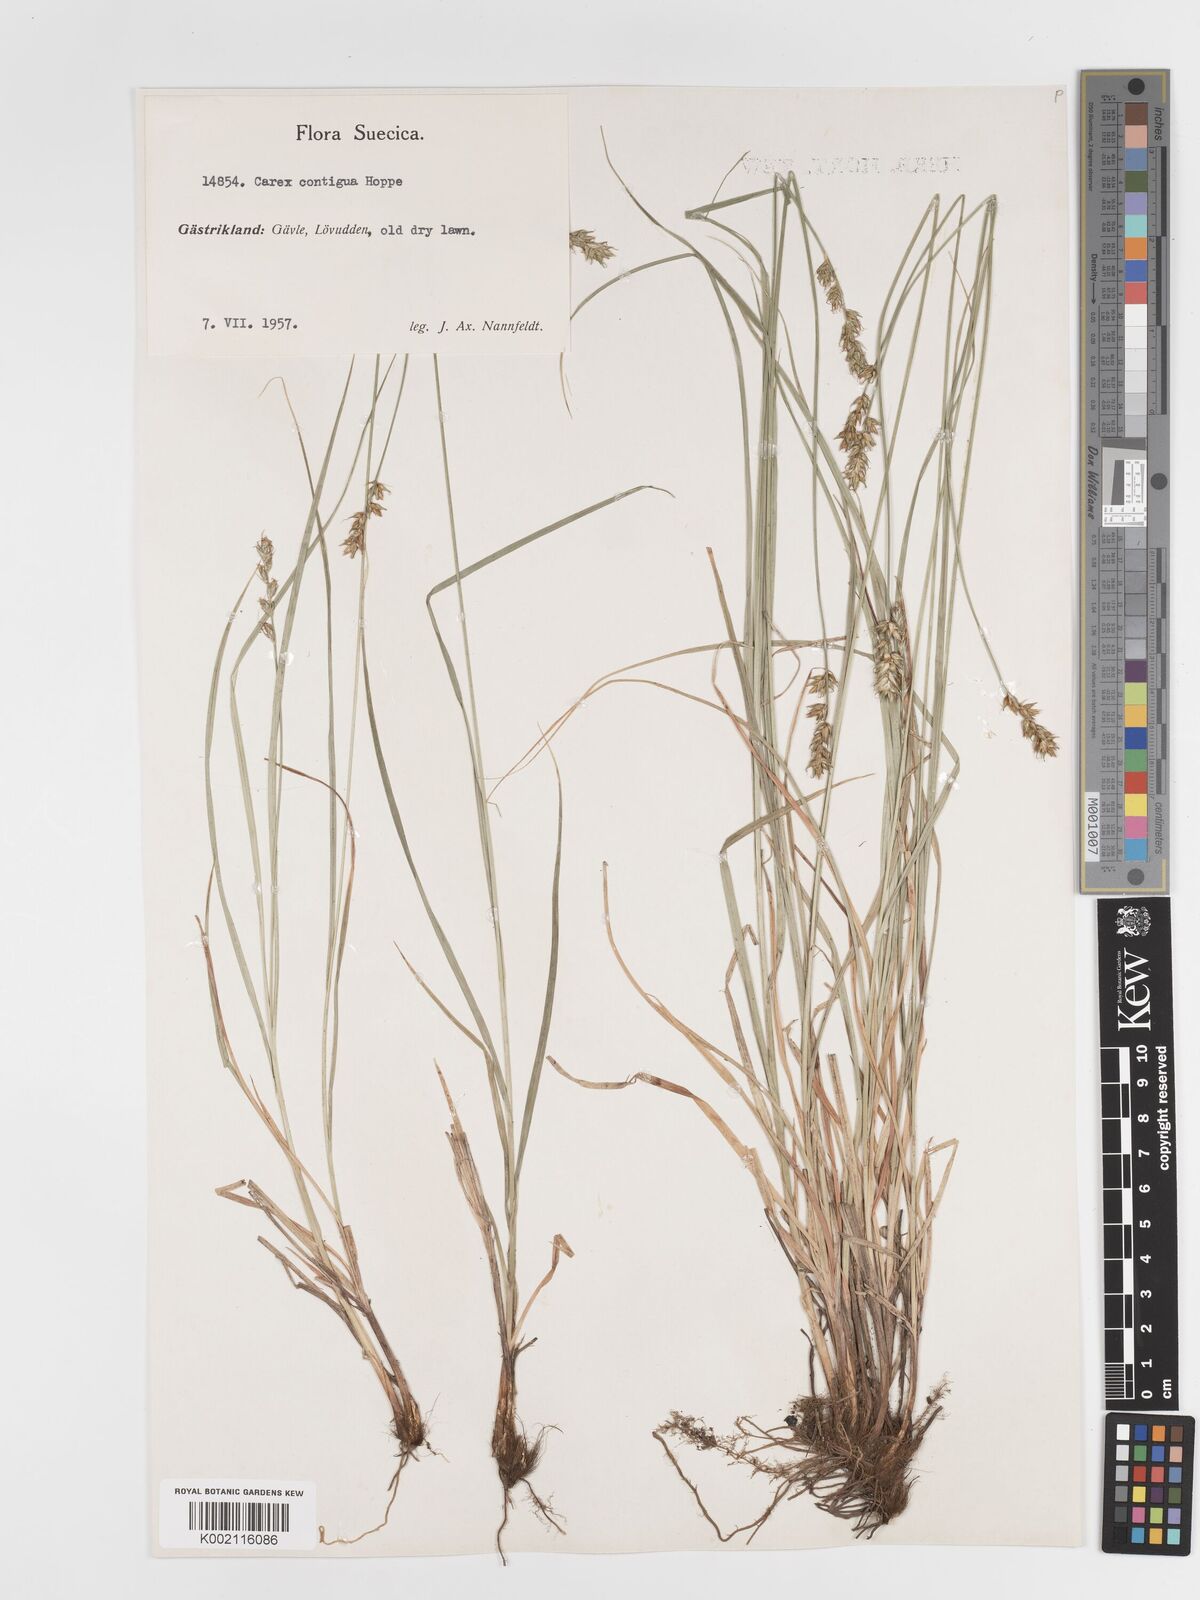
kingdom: Plantae
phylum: Tracheophyta
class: Liliopsida
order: Poales
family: Cyperaceae
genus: Carex
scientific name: Carex spicata
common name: Spiked sedge
